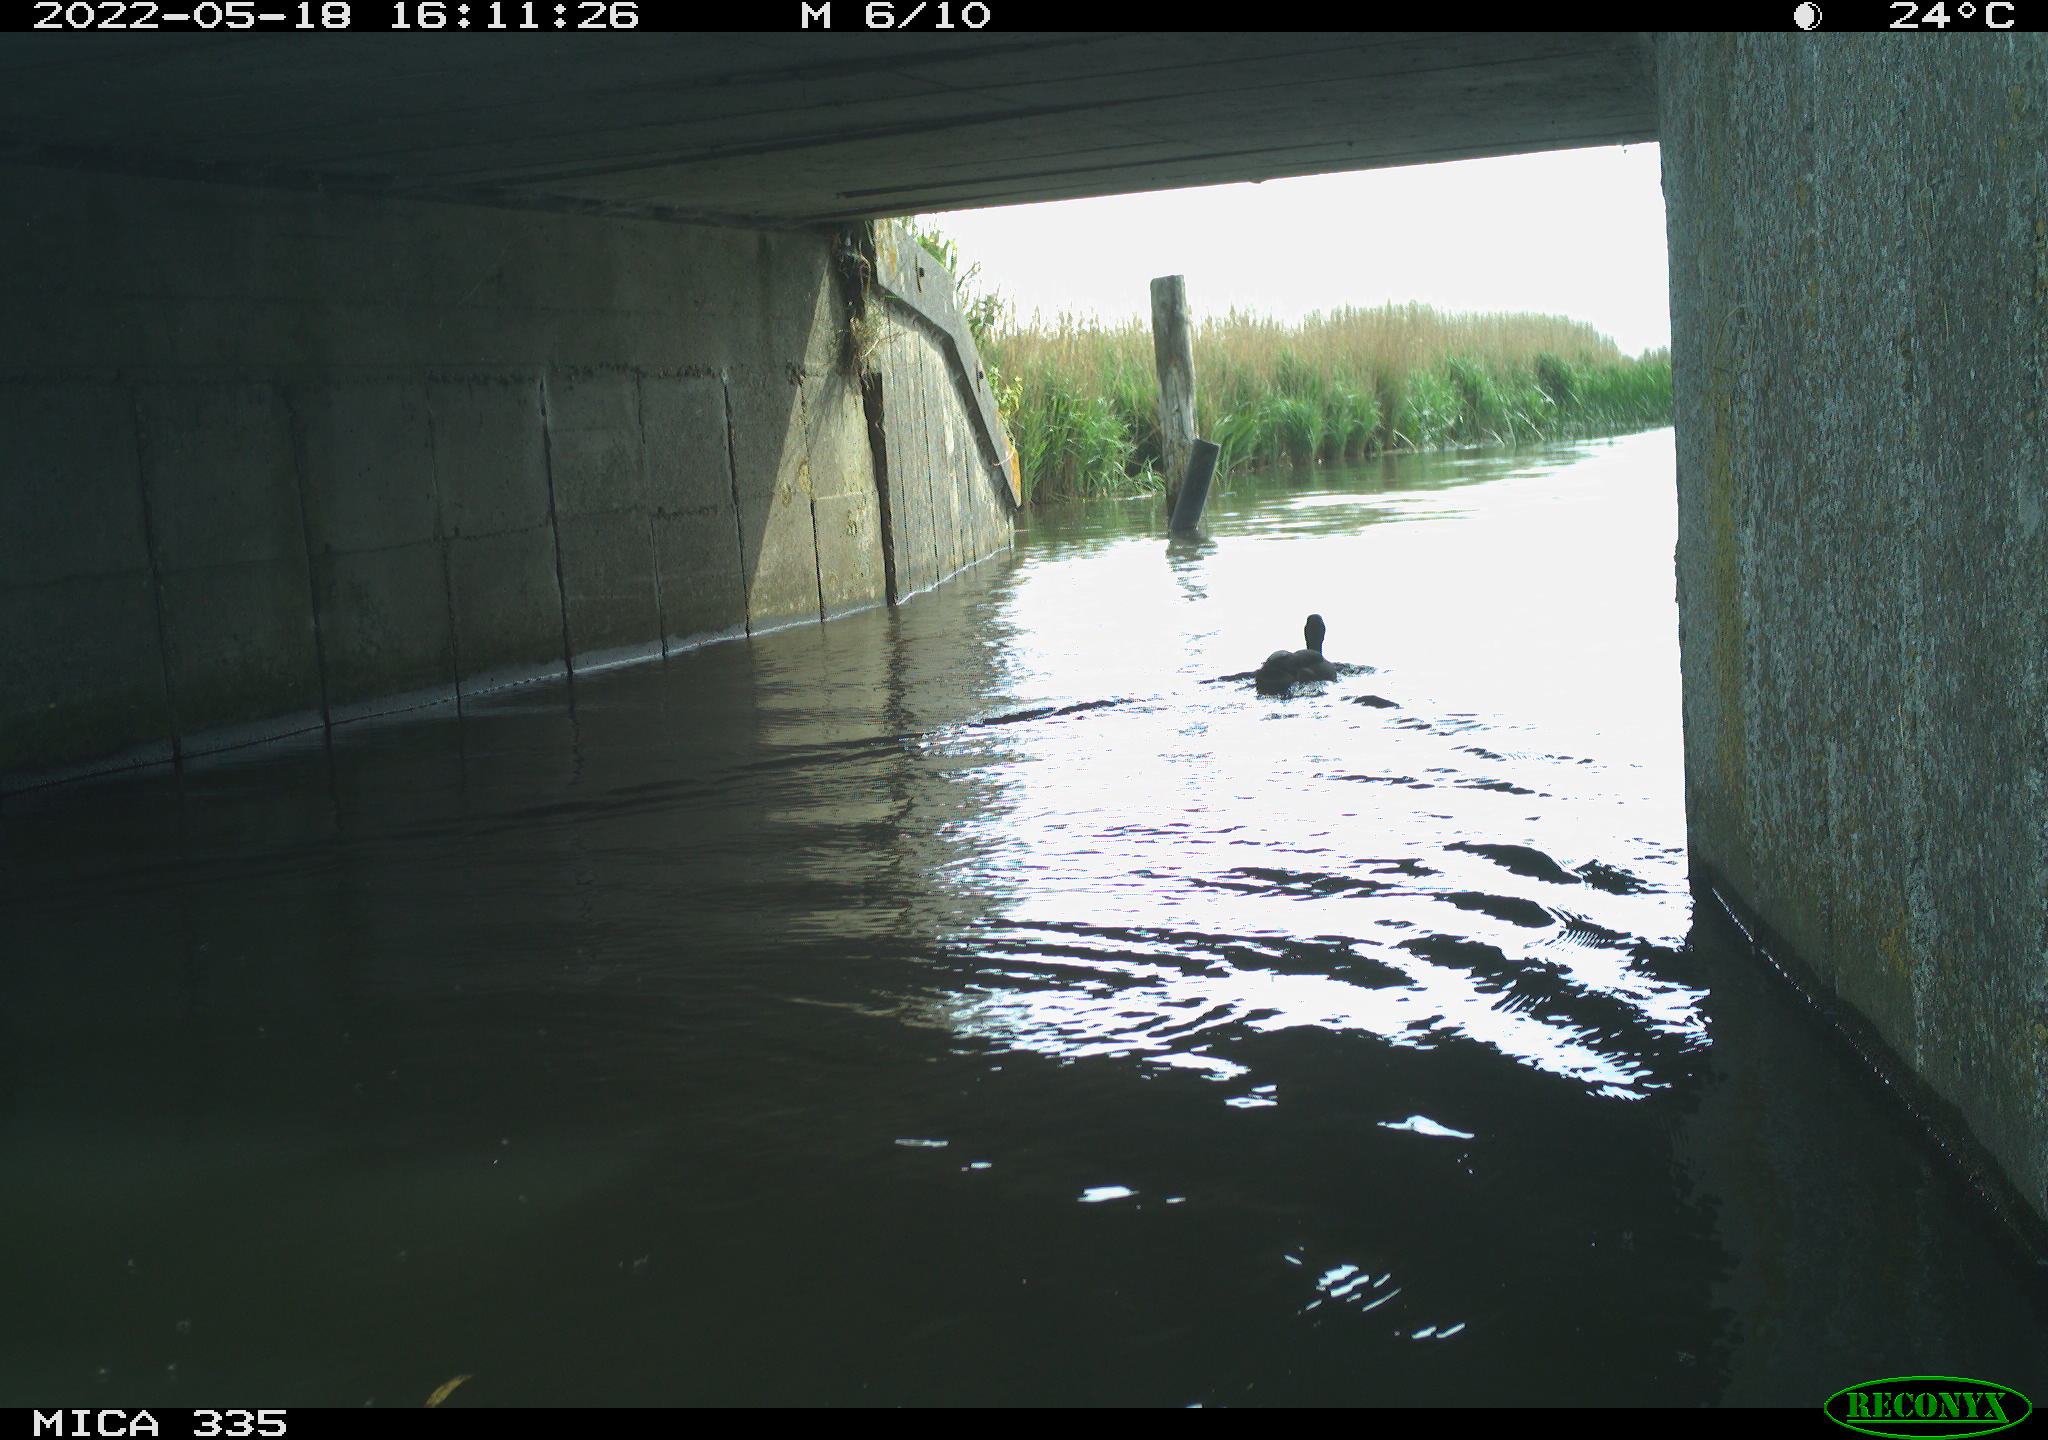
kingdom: Animalia
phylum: Chordata
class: Aves
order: Anseriformes
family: Anatidae
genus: Anas
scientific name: Anas platyrhynchos
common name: Mallard
